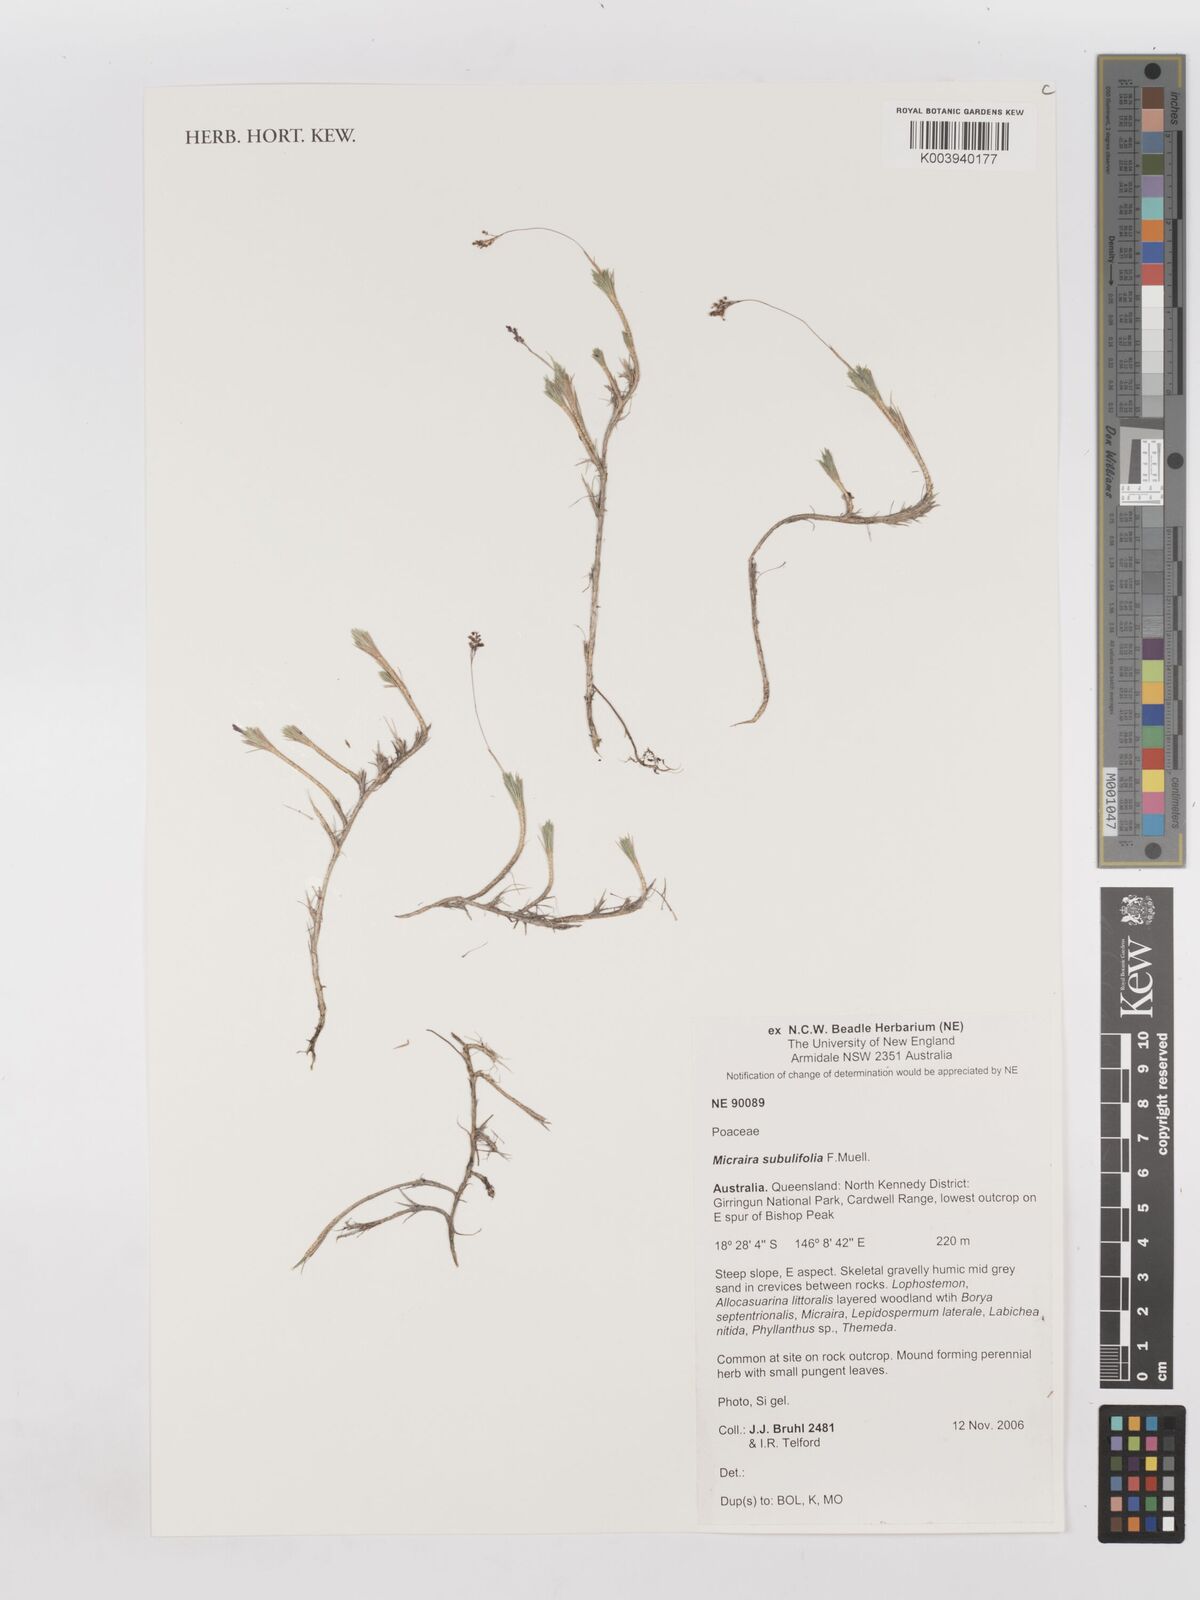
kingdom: Plantae
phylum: Tracheophyta
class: Liliopsida
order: Poales
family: Poaceae
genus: Micraira
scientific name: Micraira subulifolia
